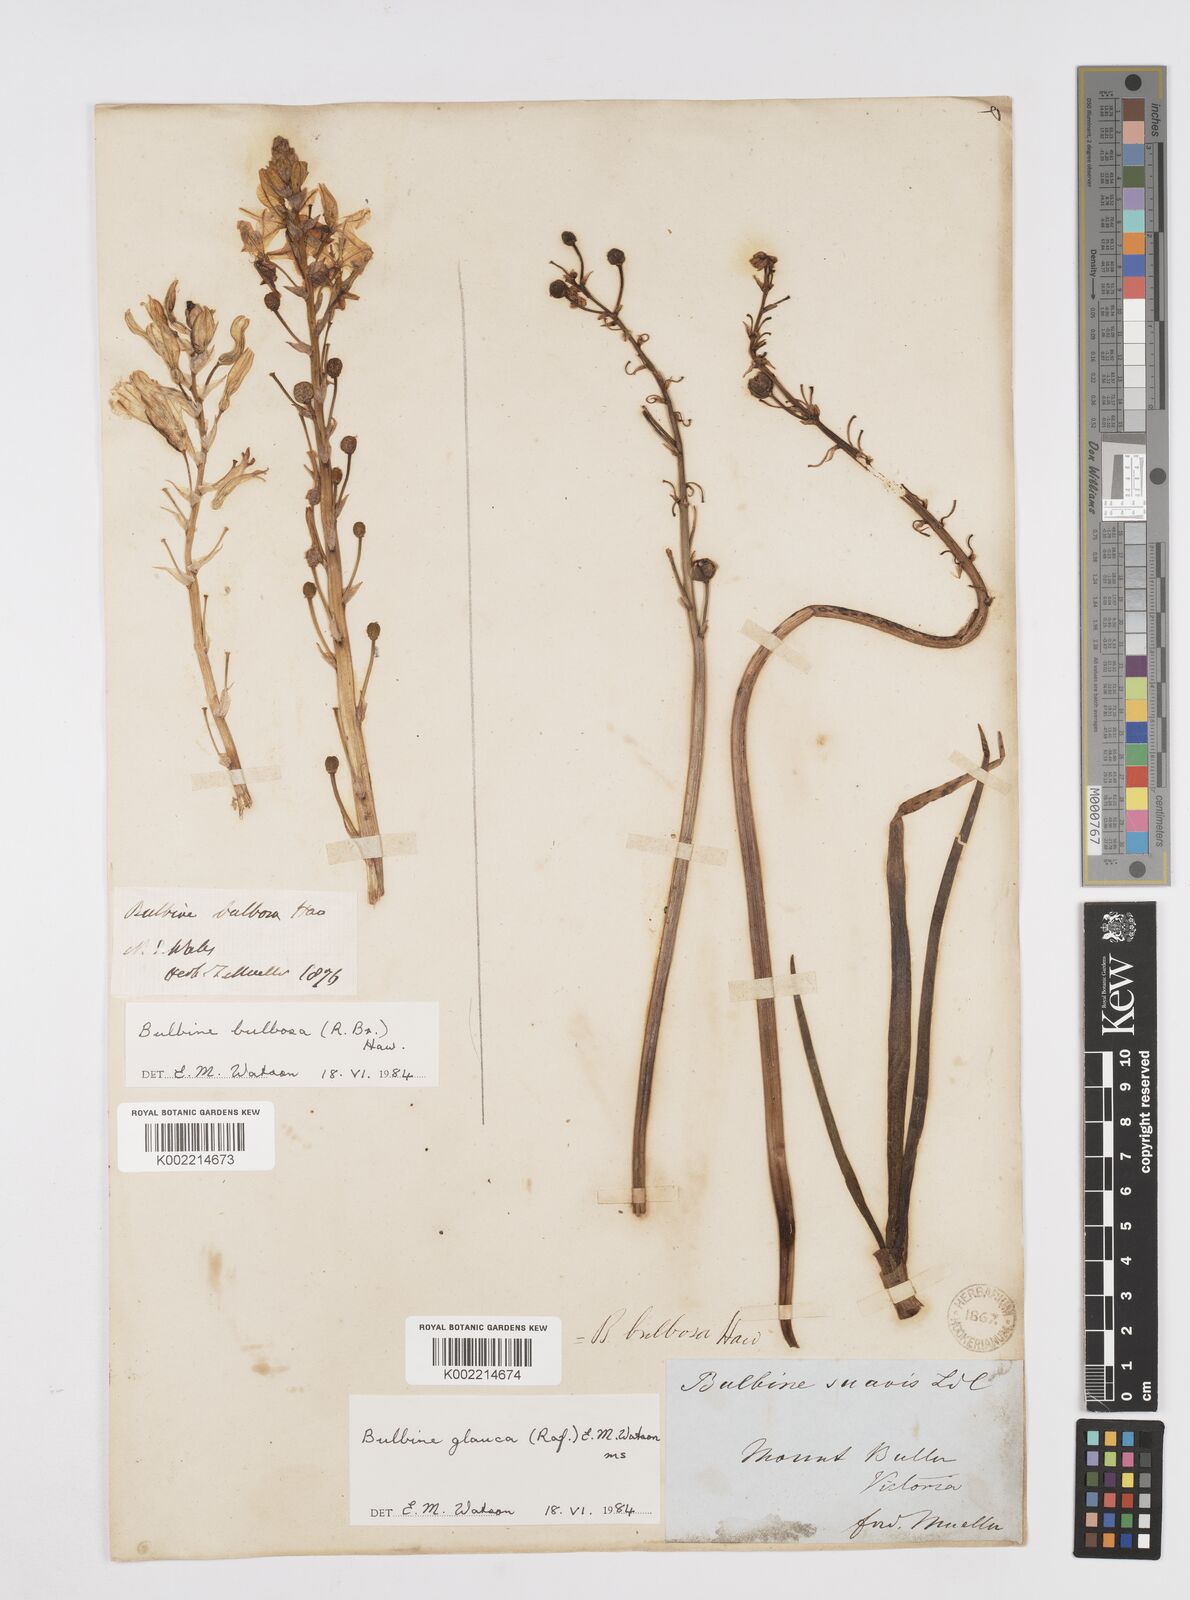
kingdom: Plantae
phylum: Tracheophyta
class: Liliopsida
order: Asparagales
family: Asphodelaceae
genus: Bulbine
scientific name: Bulbine bulbosa
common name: Golden-lily
